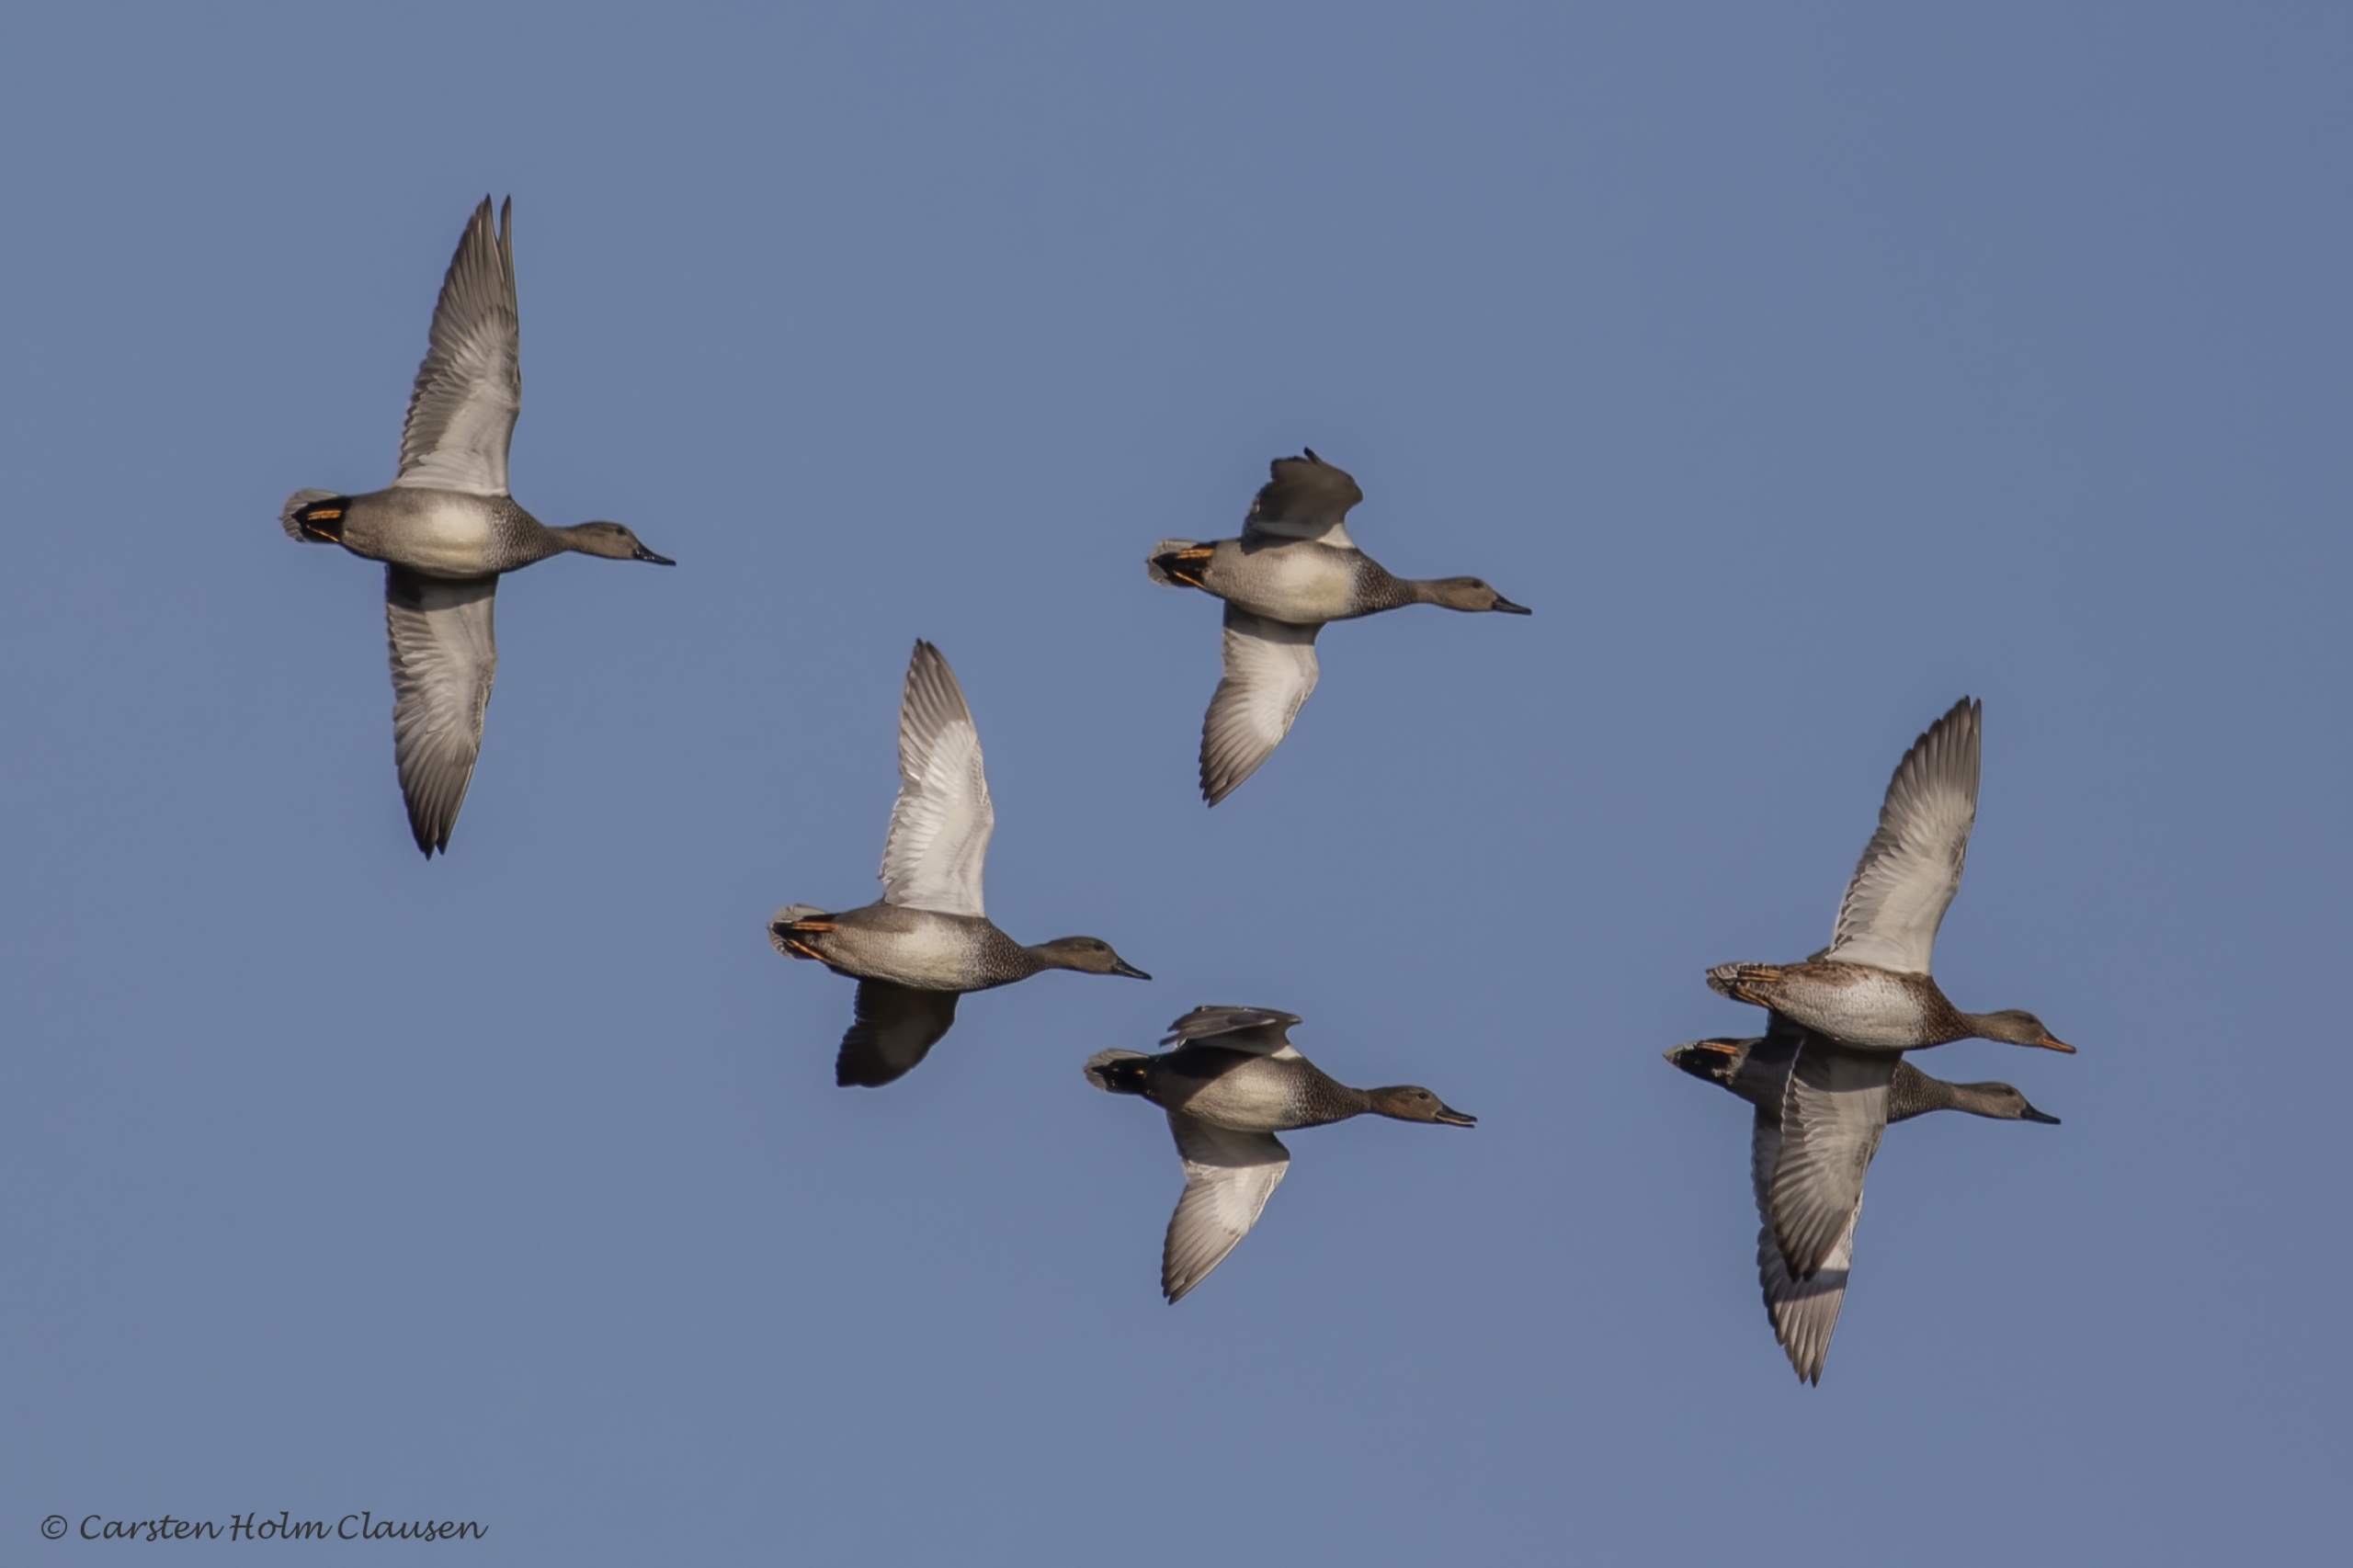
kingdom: Animalia
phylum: Chordata
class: Aves
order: Anseriformes
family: Anatidae
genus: Mareca
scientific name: Mareca strepera
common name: Knarand
